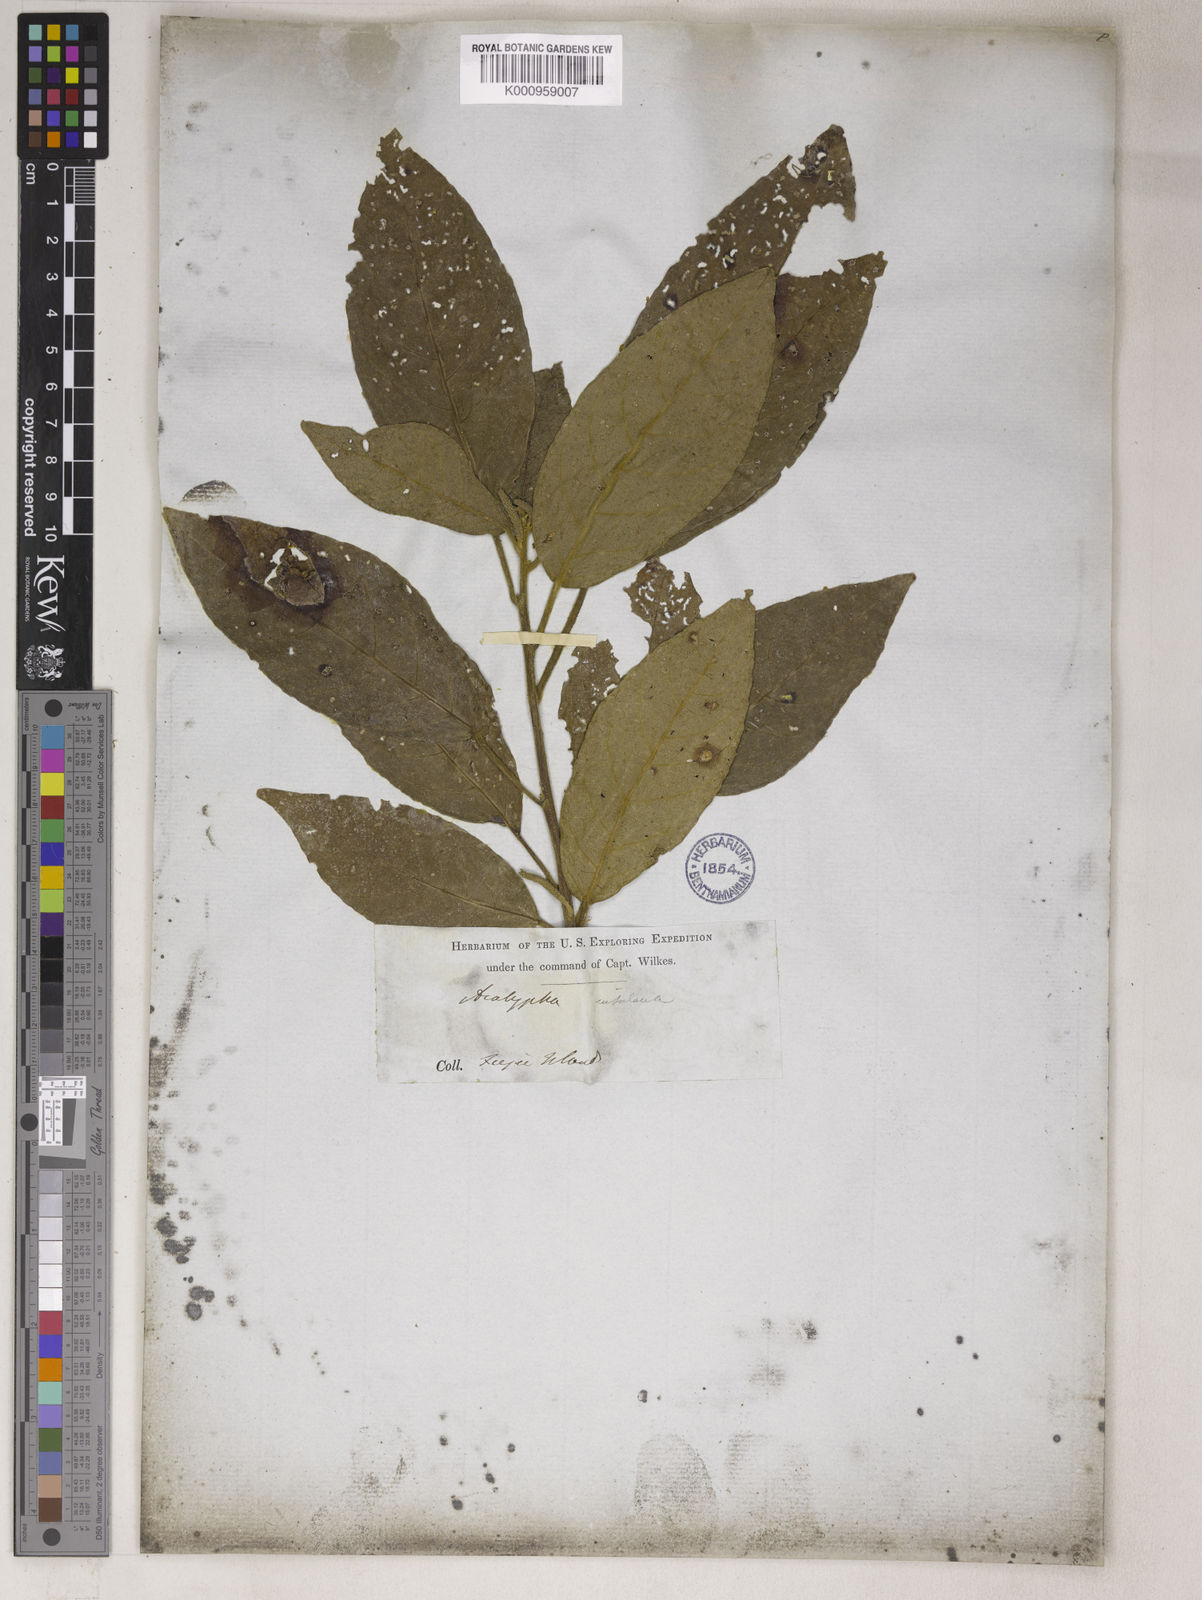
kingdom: Plantae
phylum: Tracheophyta
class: Magnoliopsida
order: Malpighiales
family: Euphorbiaceae
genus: Acalypha
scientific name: Acalypha
